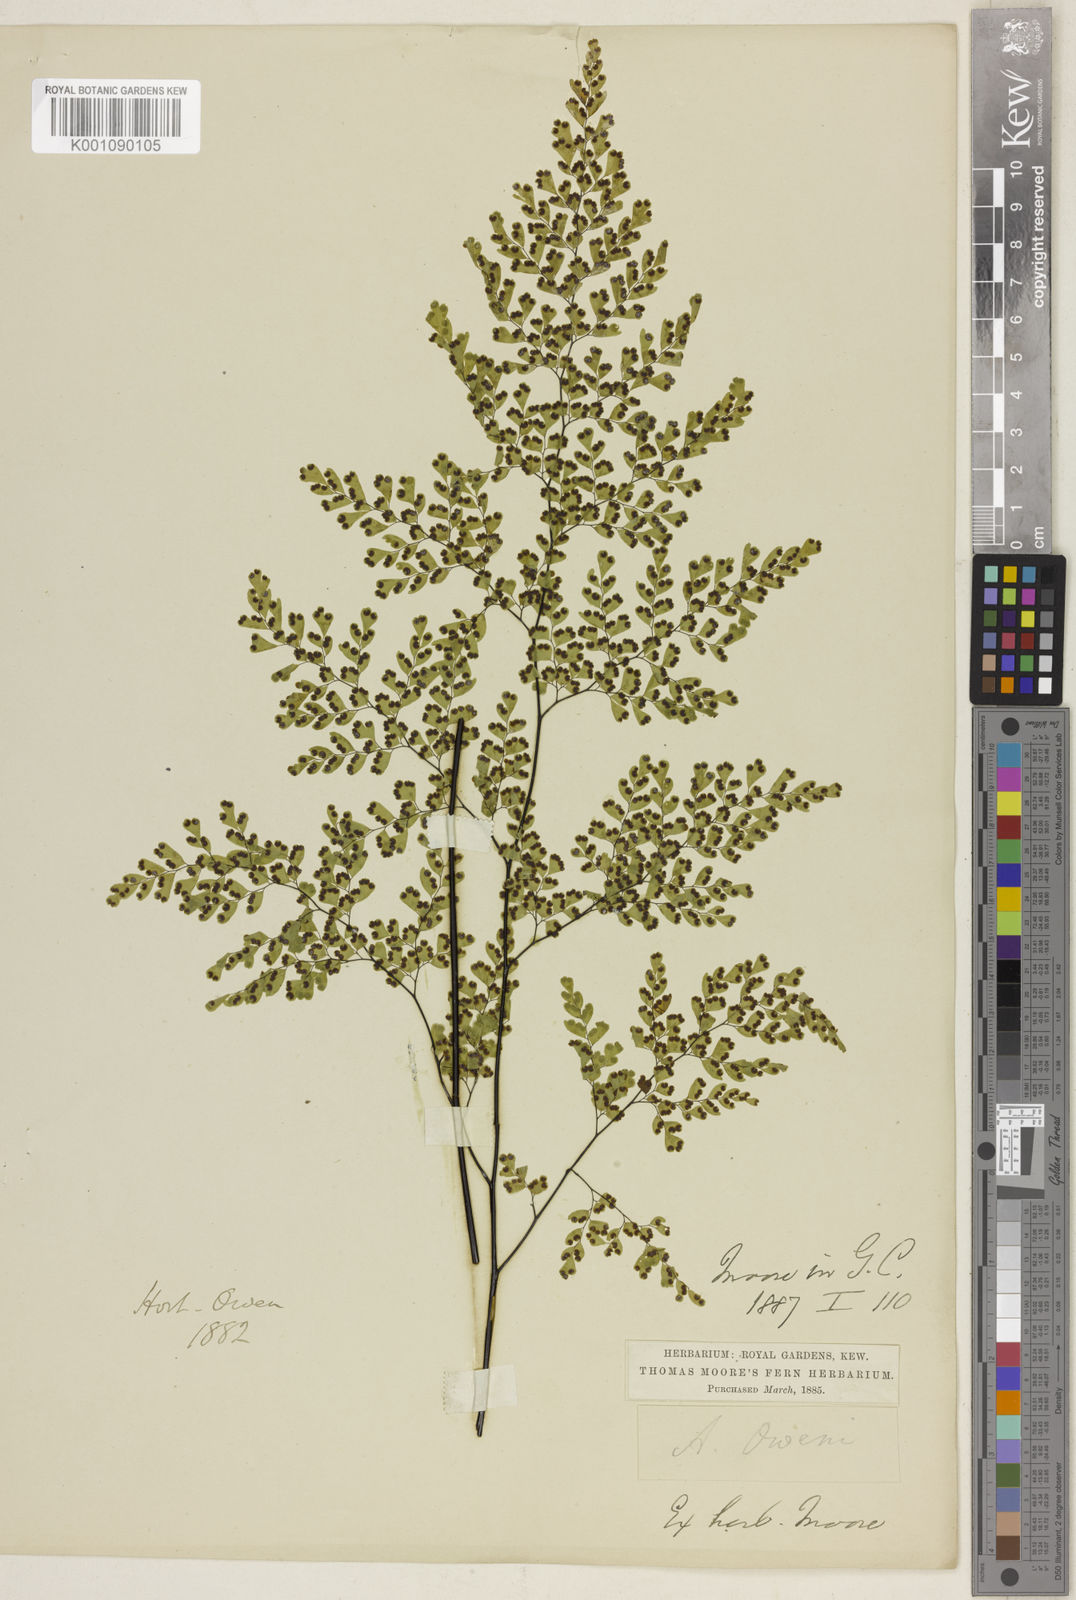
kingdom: Plantae
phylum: Tracheophyta
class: Polypodiopsida
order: Polypodiales
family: Pteridaceae
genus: Adiantum
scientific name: Adiantum raddianum
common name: Delta maidenhair fern
